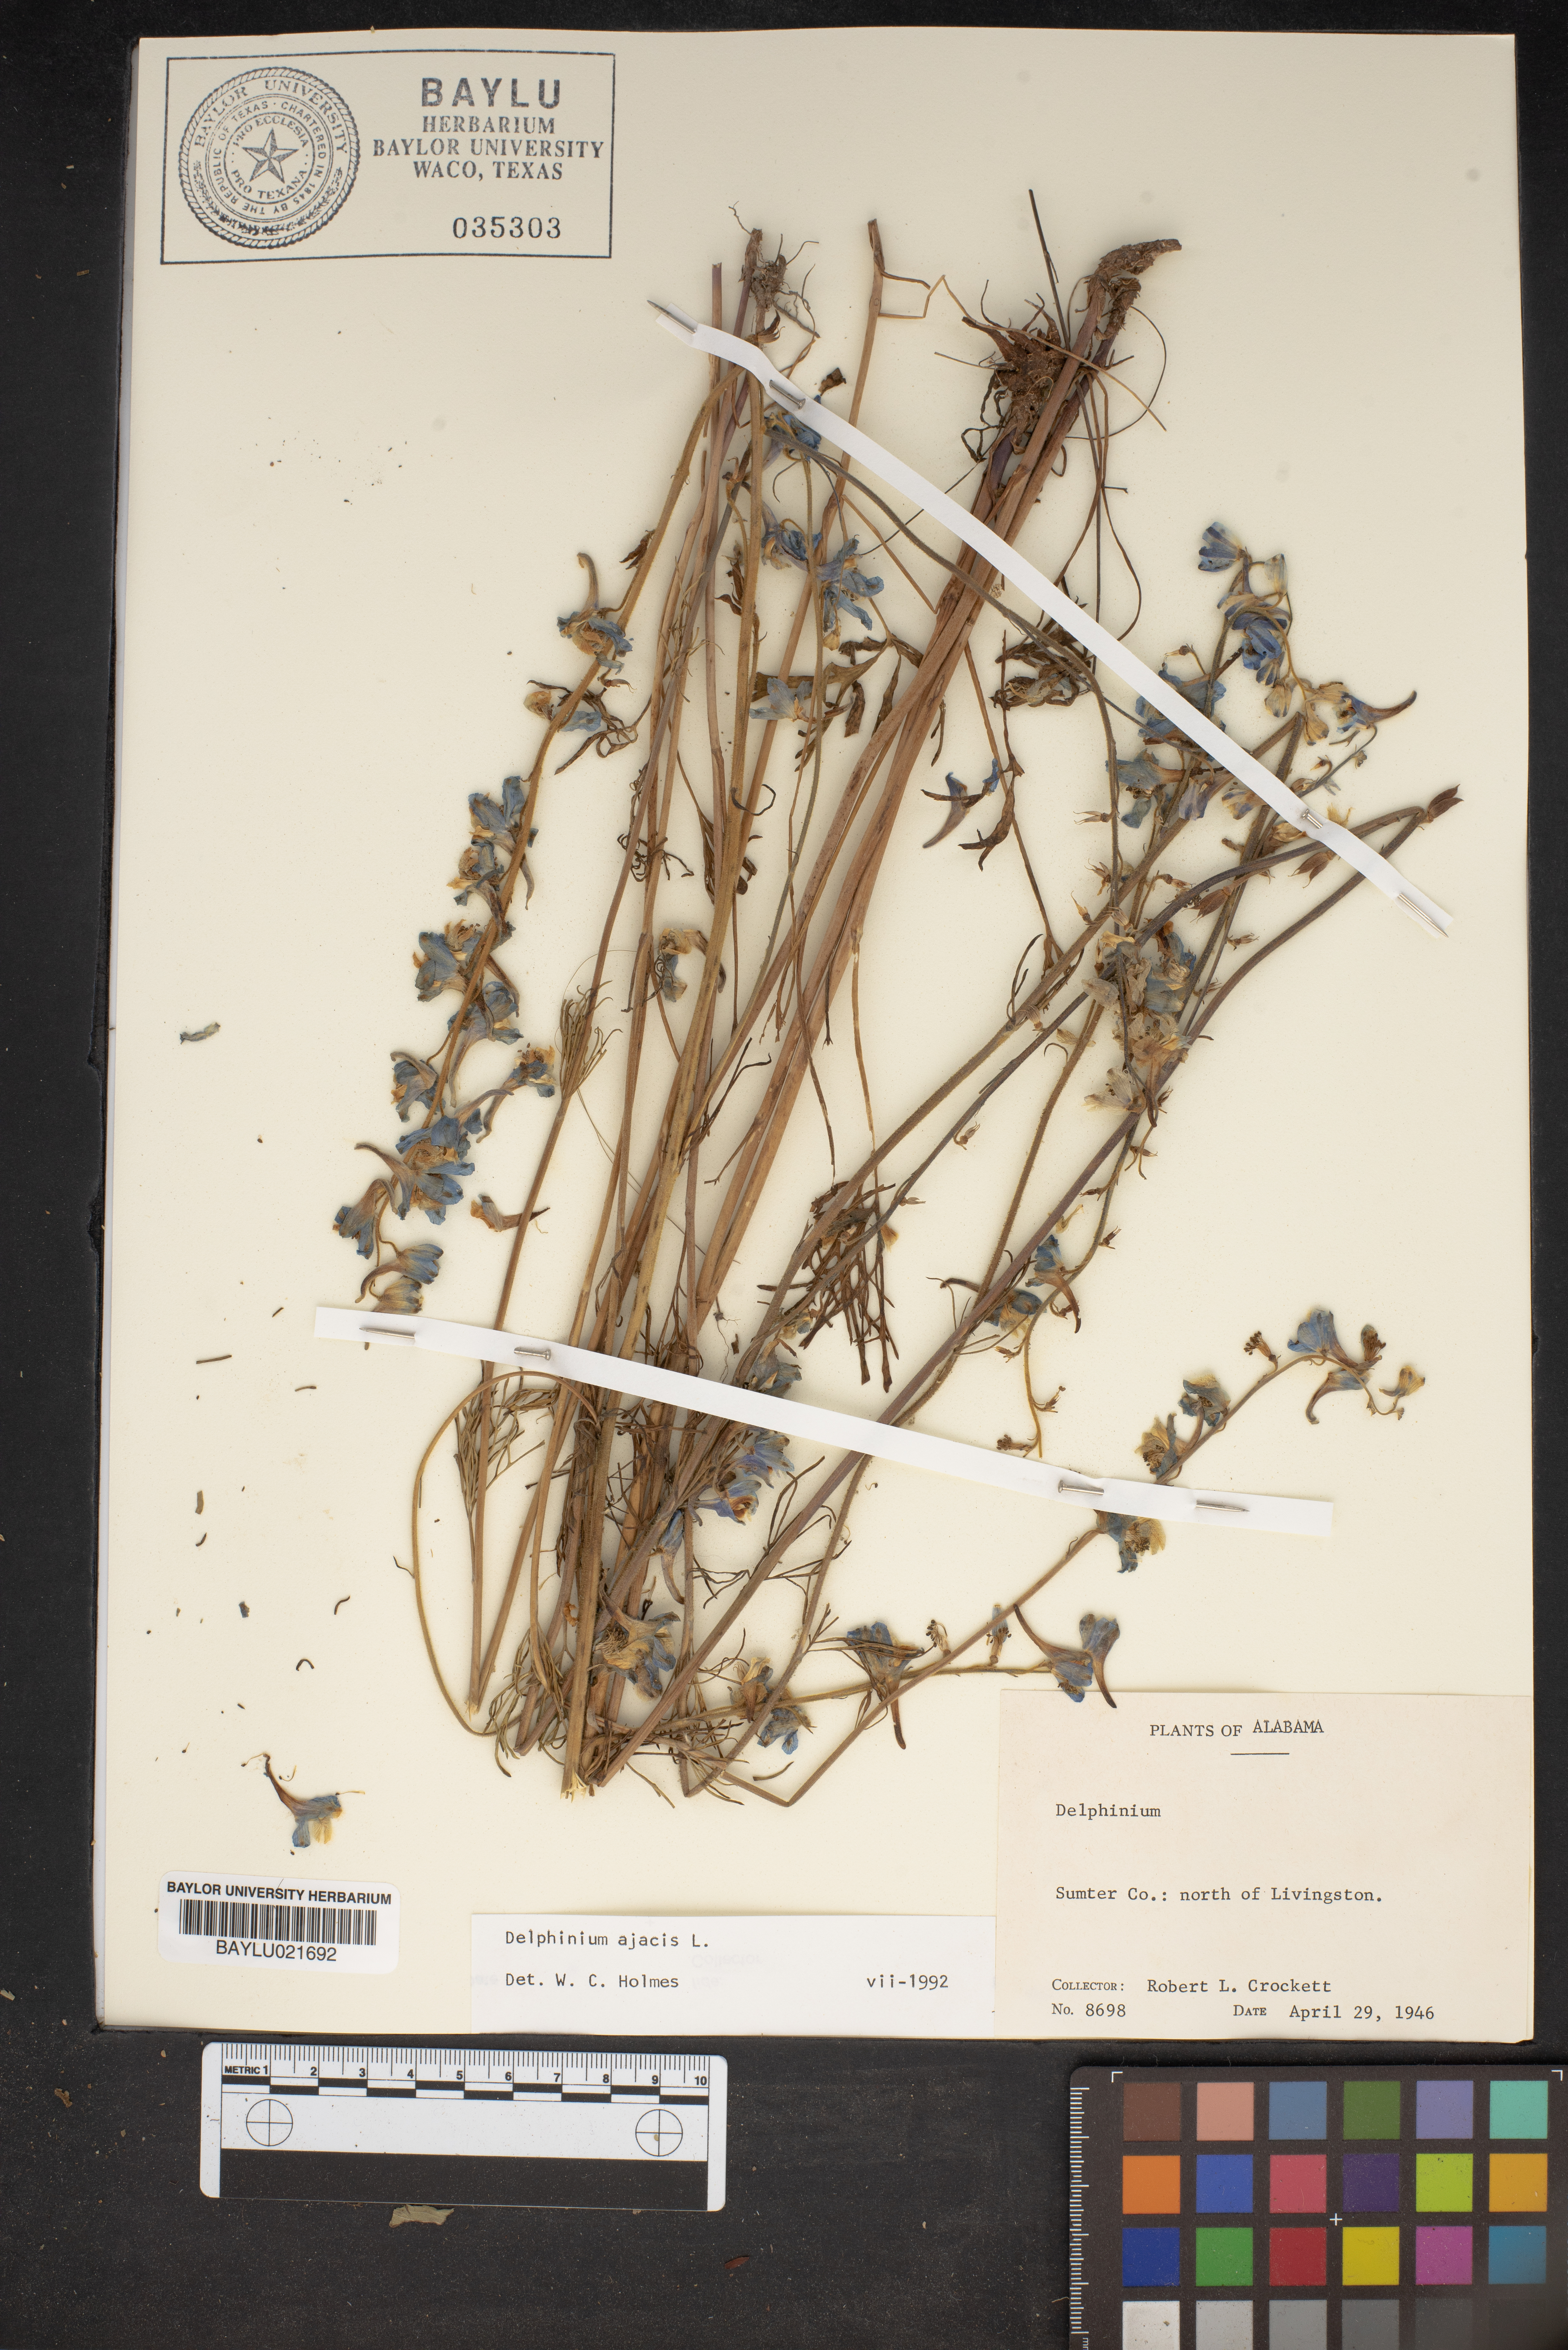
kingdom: Plantae
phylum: Tracheophyta
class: Magnoliopsida
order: Ranunculales
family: Ranunculaceae
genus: Delphinium
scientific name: Delphinium ajacis
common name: Doubtful knight's-spur
